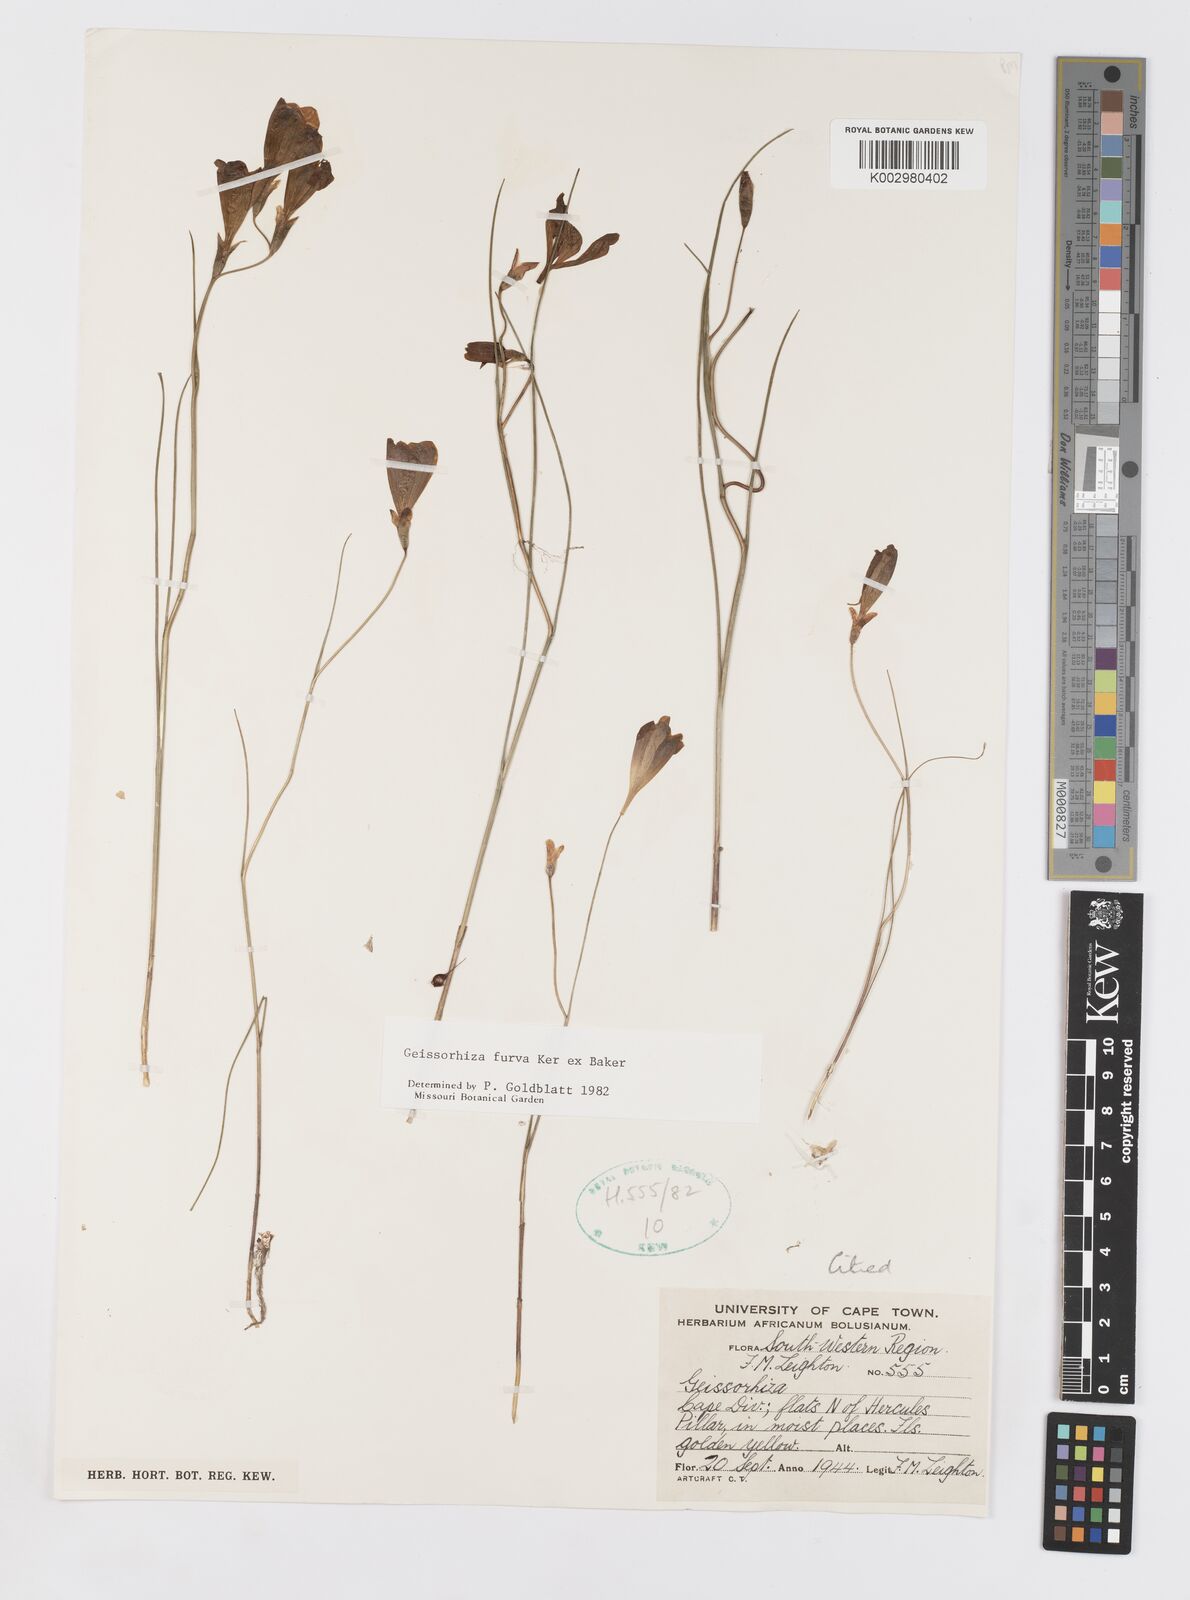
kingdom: Plantae
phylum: Tracheophyta
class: Liliopsida
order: Asparagales
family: Iridaceae
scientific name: Iridaceae
